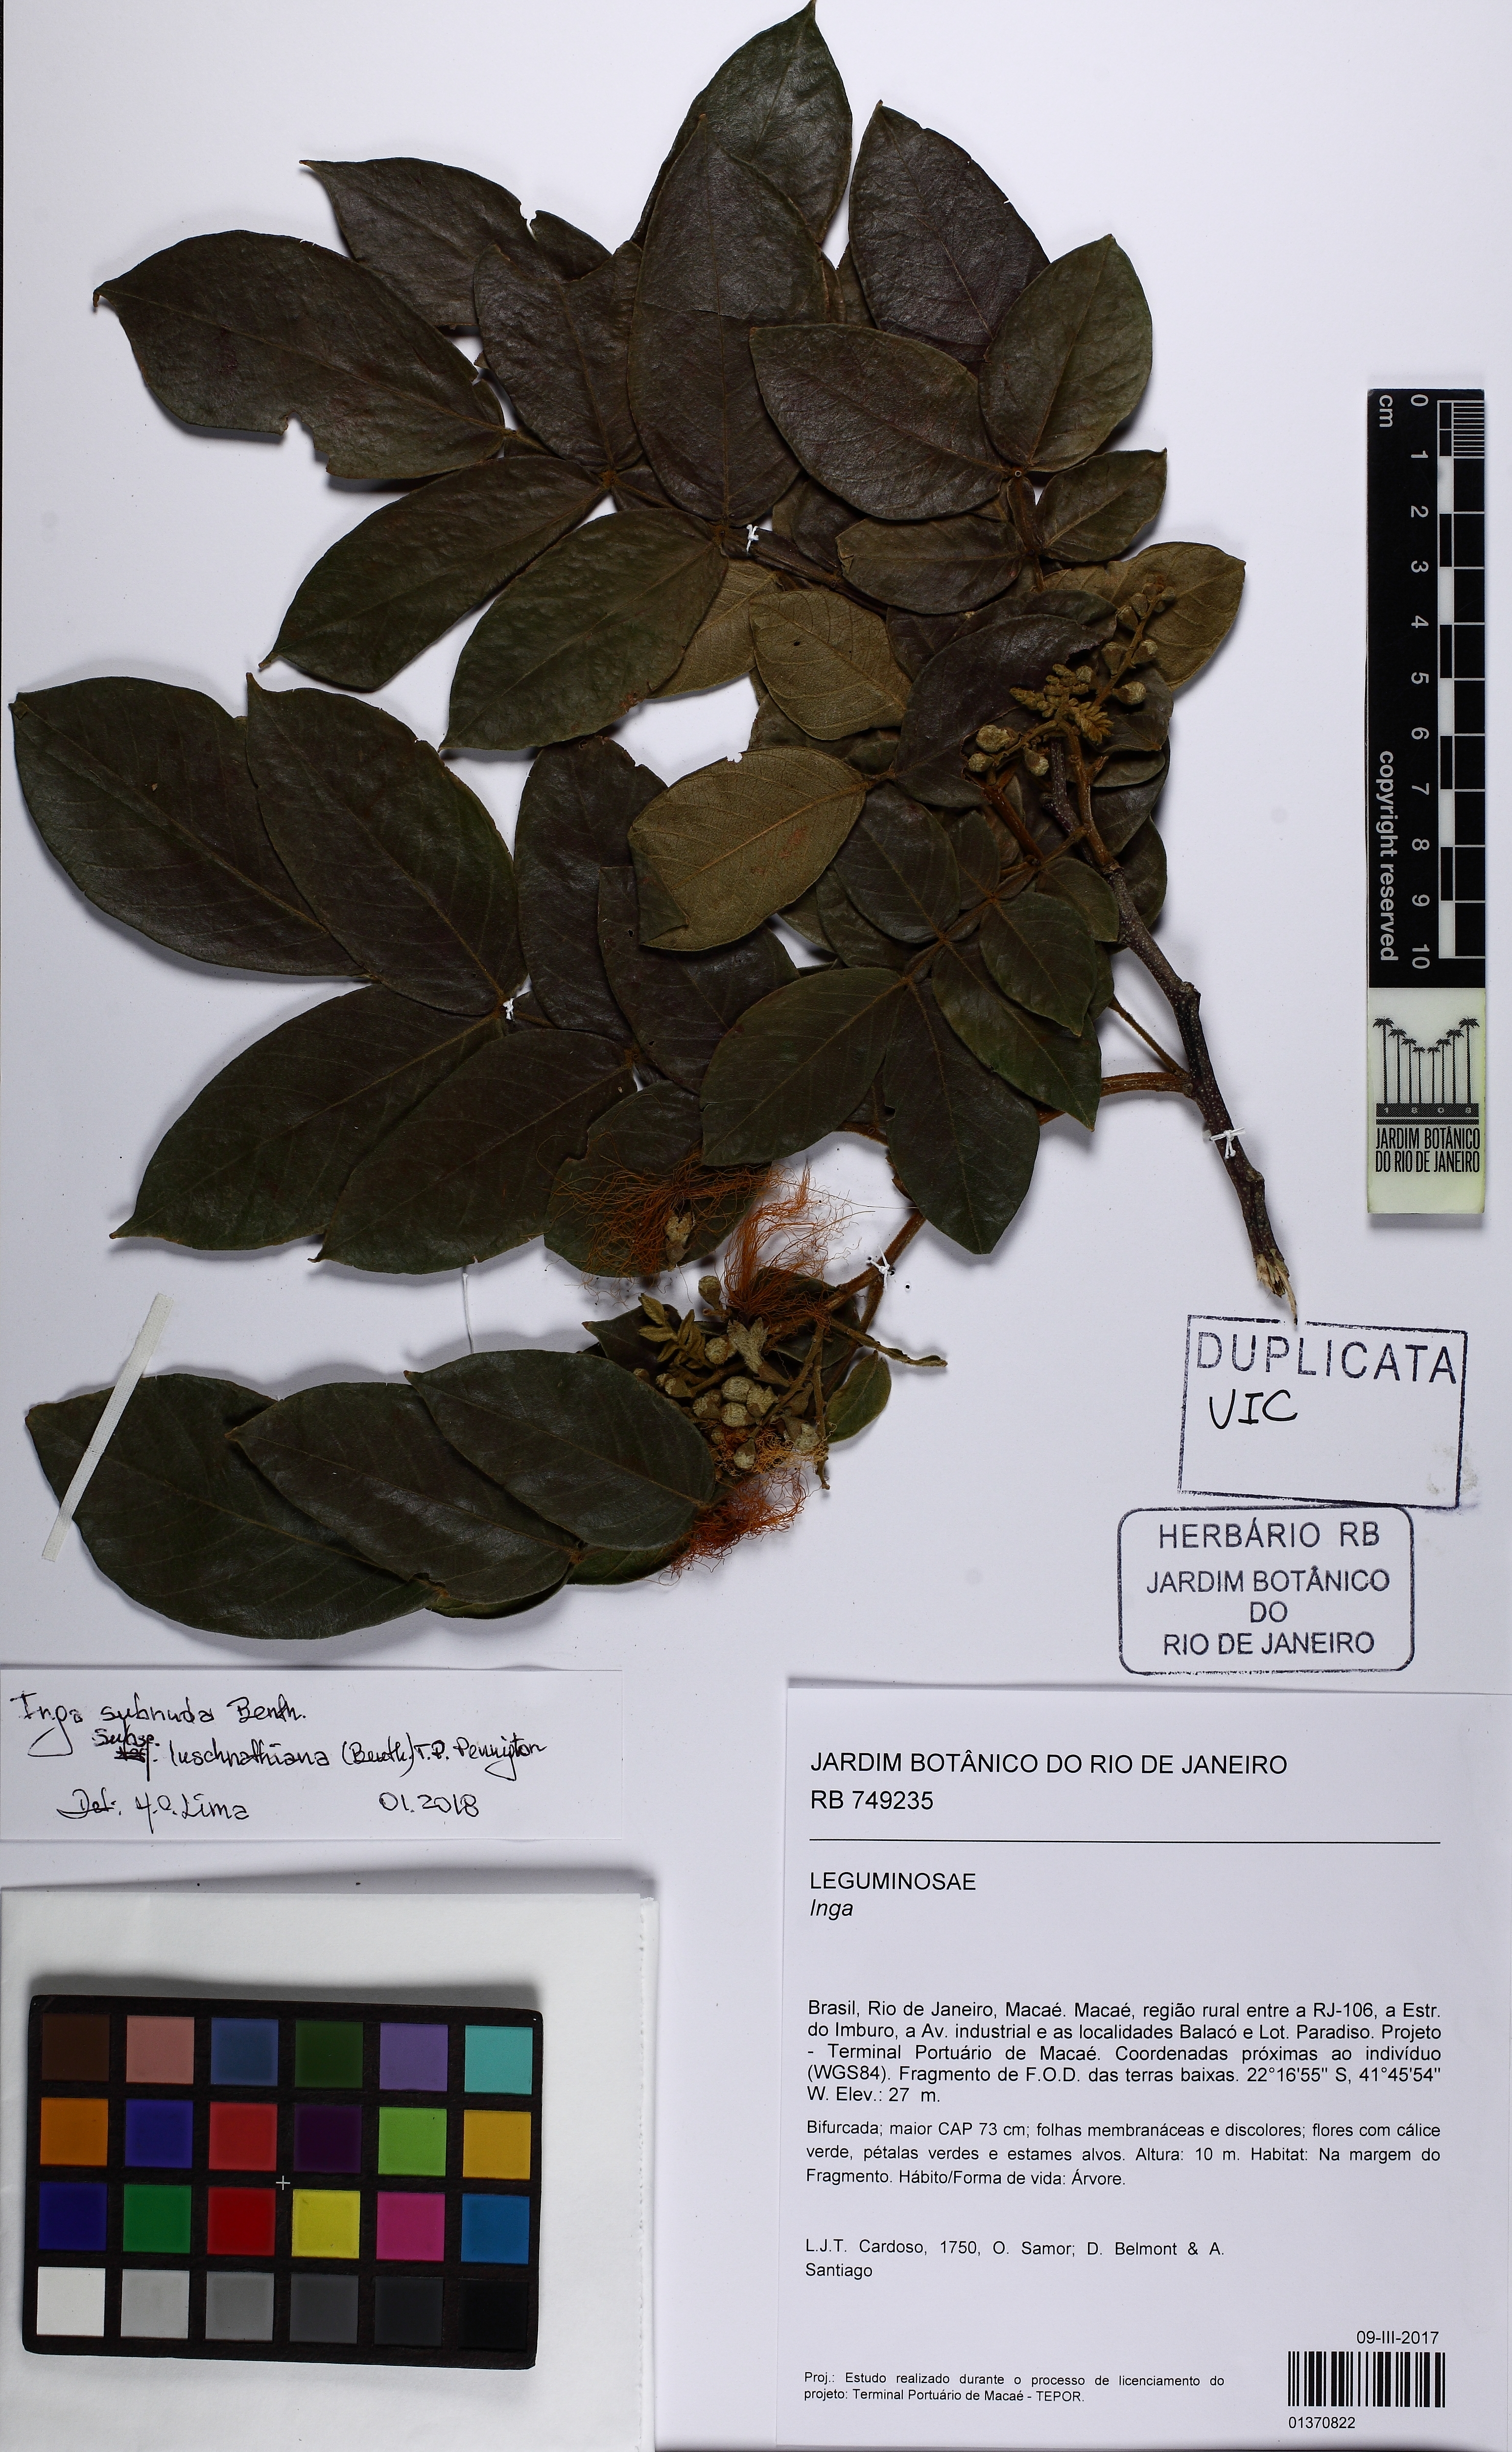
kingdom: Plantae
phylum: Tracheophyta
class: Magnoliopsida
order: Fabales
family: Fabaceae
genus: Inga
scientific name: Inga subnuda
